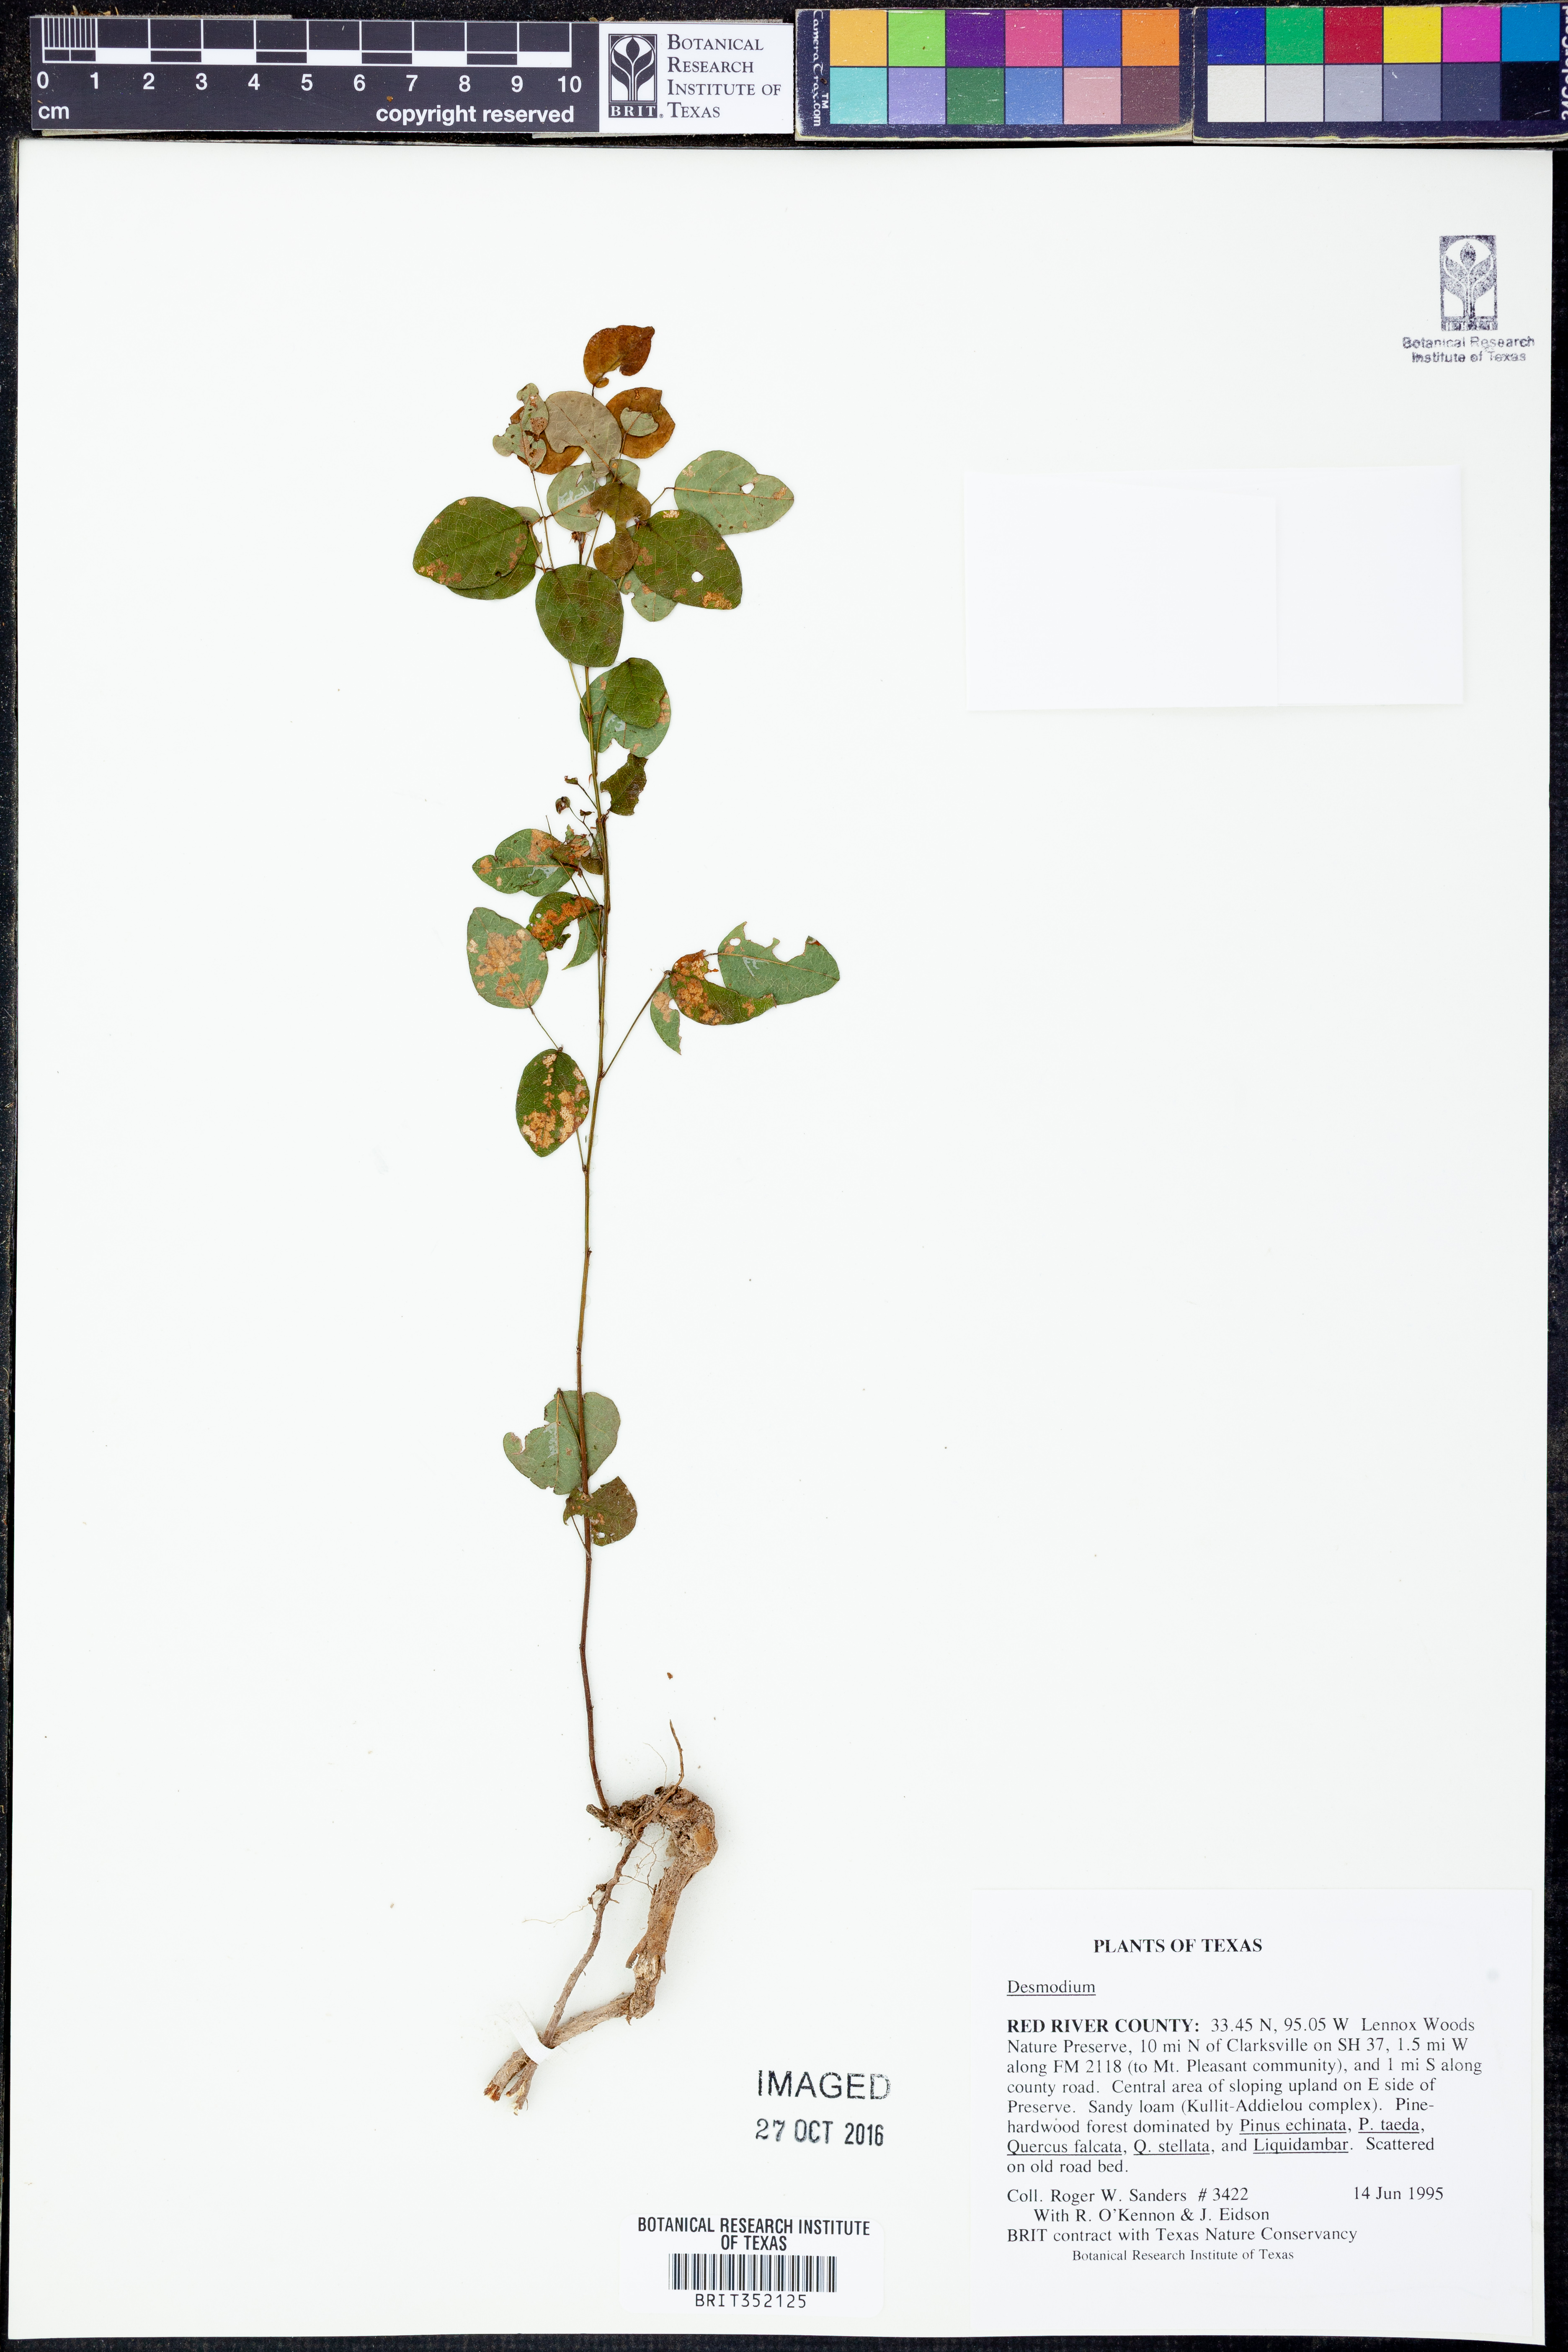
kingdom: Plantae
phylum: Tracheophyta
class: Magnoliopsida
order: Fabales
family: Fabaceae
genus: Desmodium
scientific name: Desmodium
